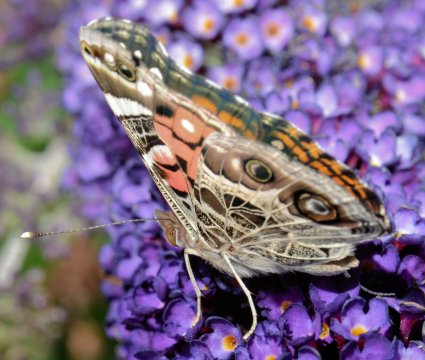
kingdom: Animalia
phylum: Arthropoda
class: Insecta
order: Lepidoptera
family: Nymphalidae
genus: Vanessa
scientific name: Vanessa virginiensis
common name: American Lady
